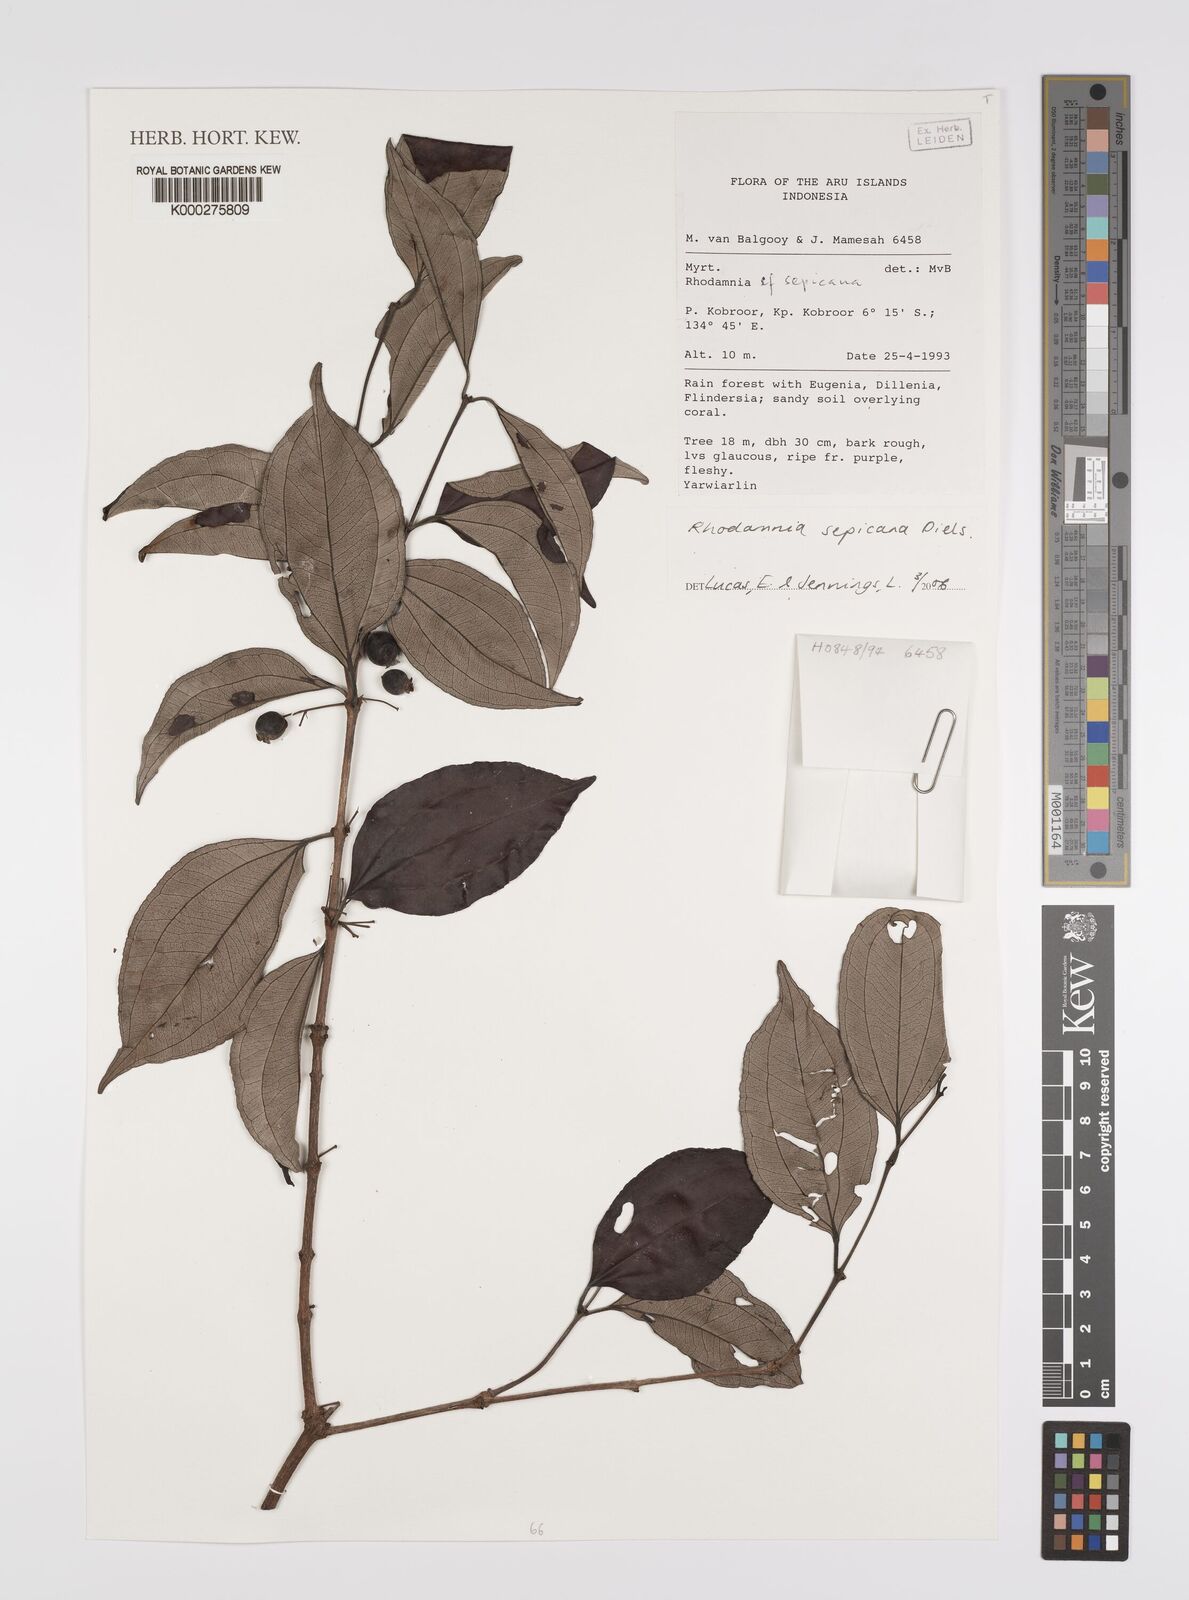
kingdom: Plantae
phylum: Tracheophyta
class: Magnoliopsida
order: Myrtales
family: Myrtaceae
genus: Rhodamnia
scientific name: Rhodamnia sepicana
